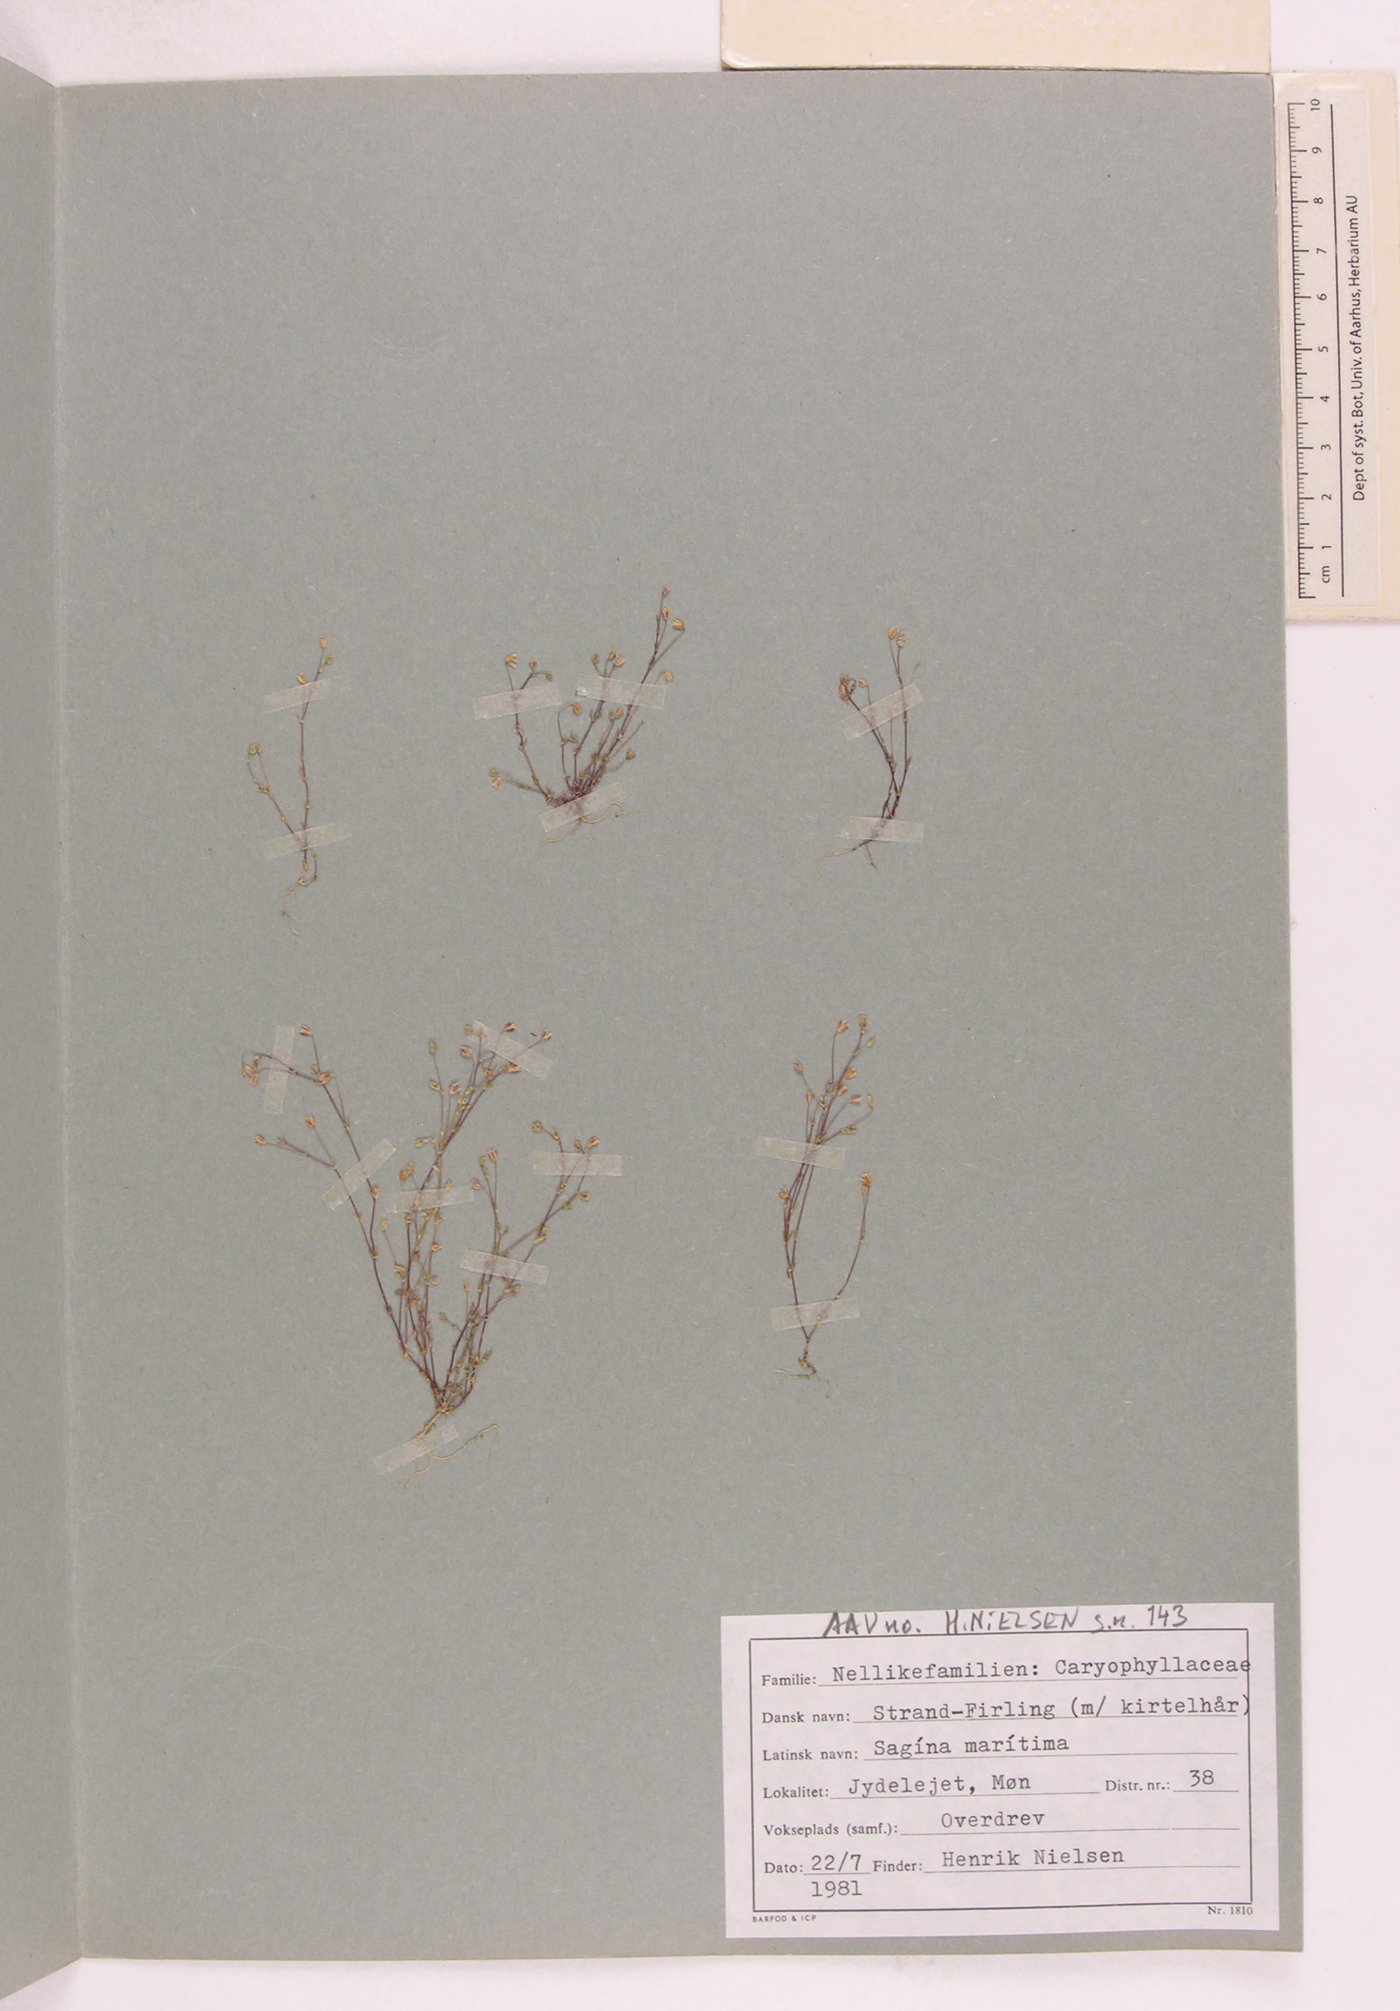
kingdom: Plantae
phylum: Tracheophyta
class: Magnoliopsida
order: Caryophyllales
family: Caryophyllaceae
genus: Sagina
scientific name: Sagina maritima
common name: Sea pearlwort
